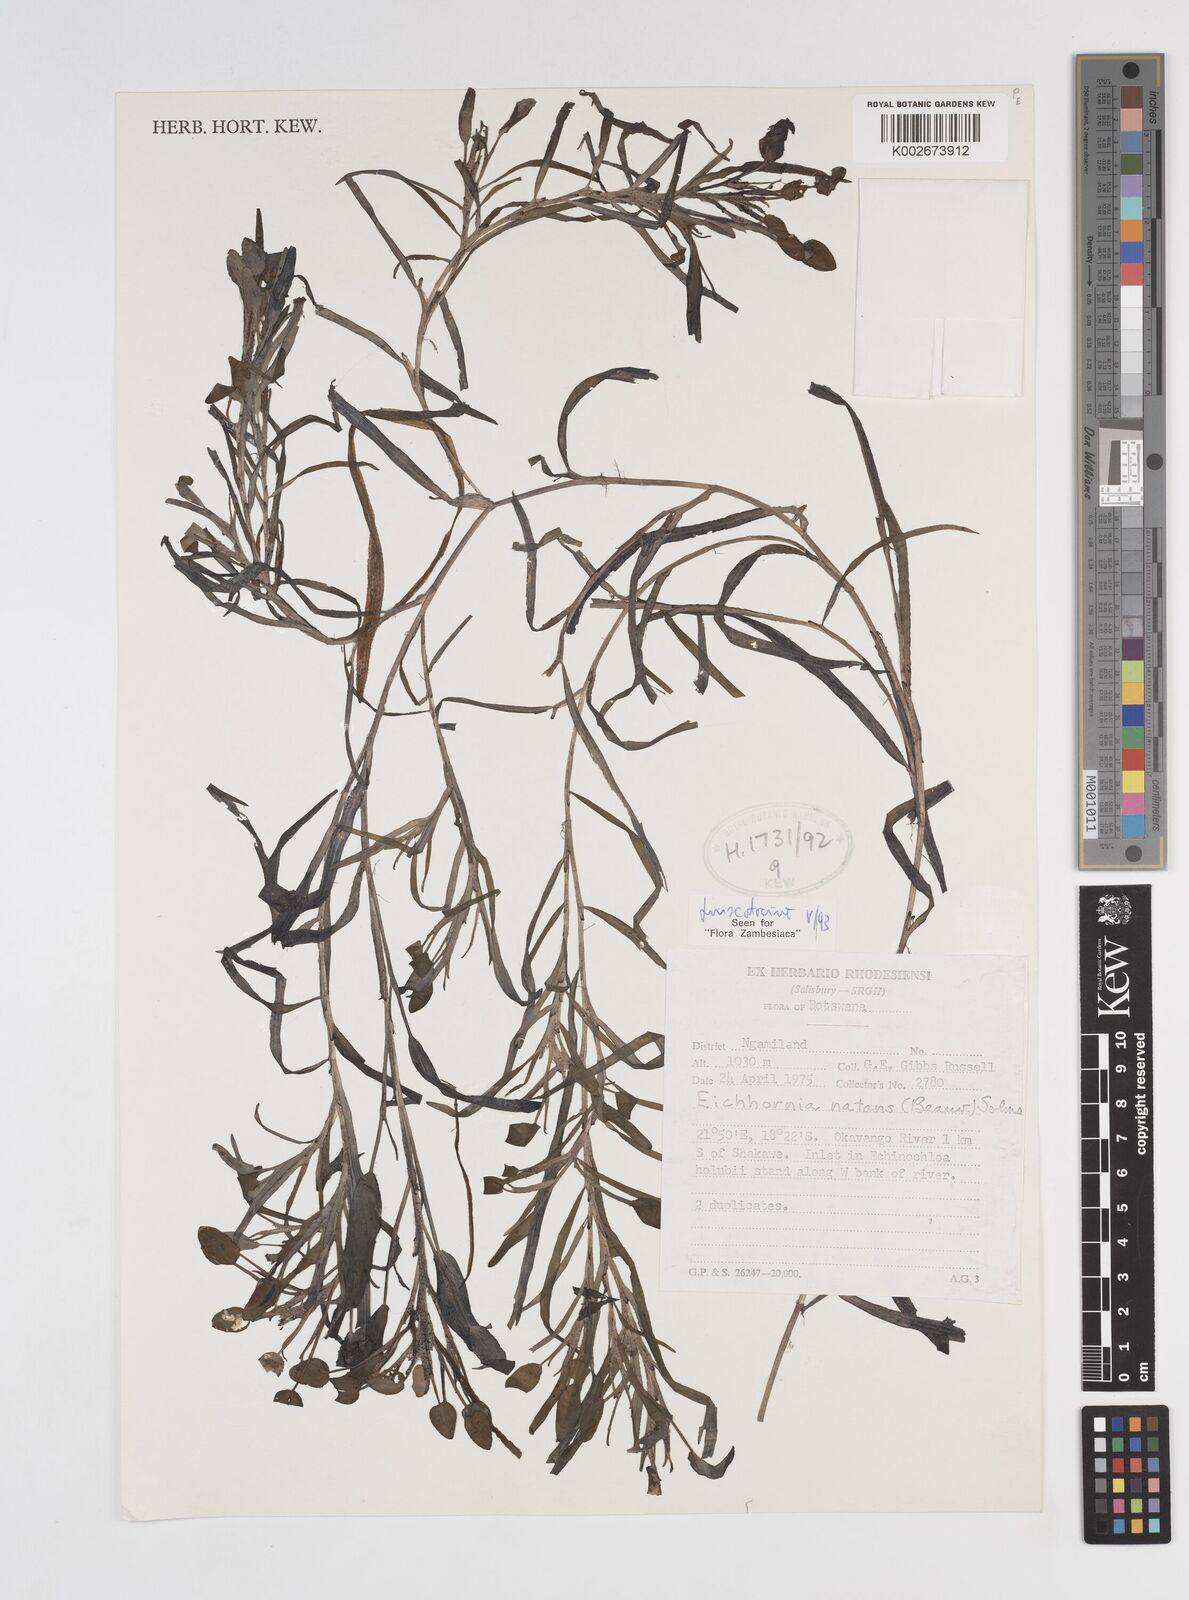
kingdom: Plantae
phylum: Tracheophyta
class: Liliopsida
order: Commelinales
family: Pontederiaceae
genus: Pontederia
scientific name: Pontederia natans
